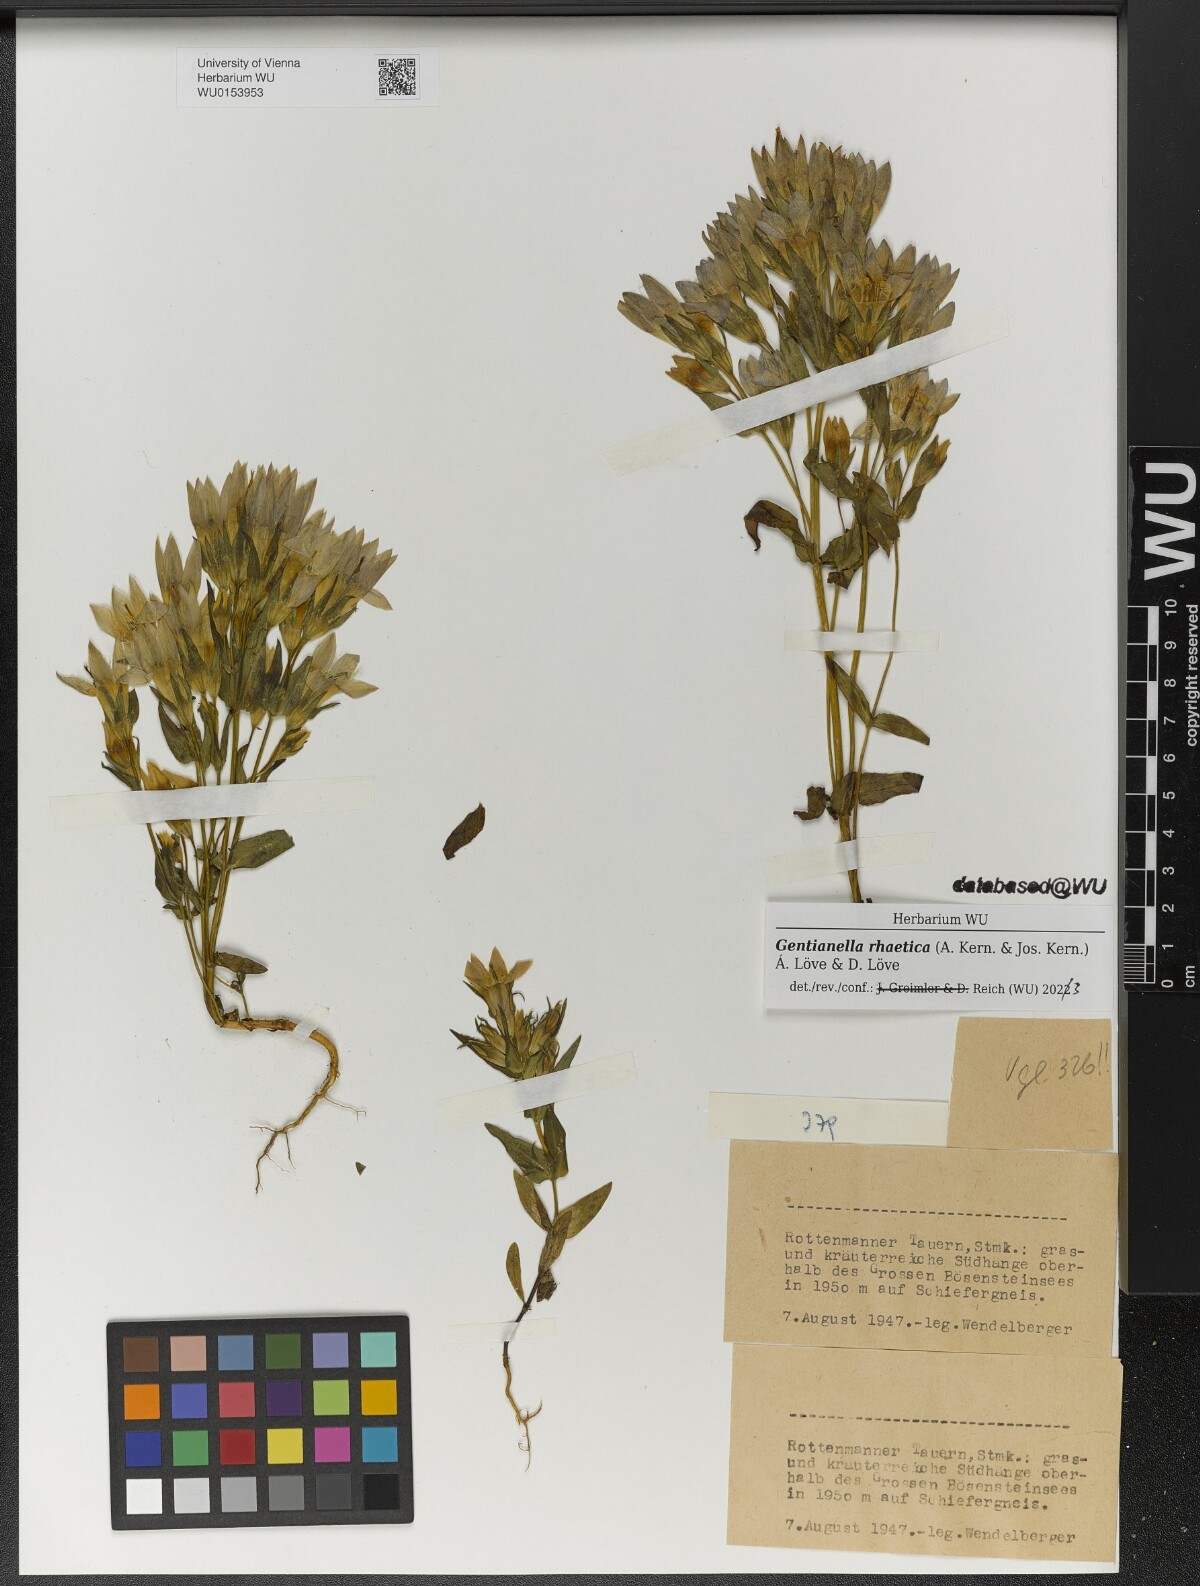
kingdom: Plantae
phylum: Tracheophyta
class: Magnoliopsida
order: Gentianales
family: Gentianaceae
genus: Gentianella
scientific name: Gentianella rhaetica
